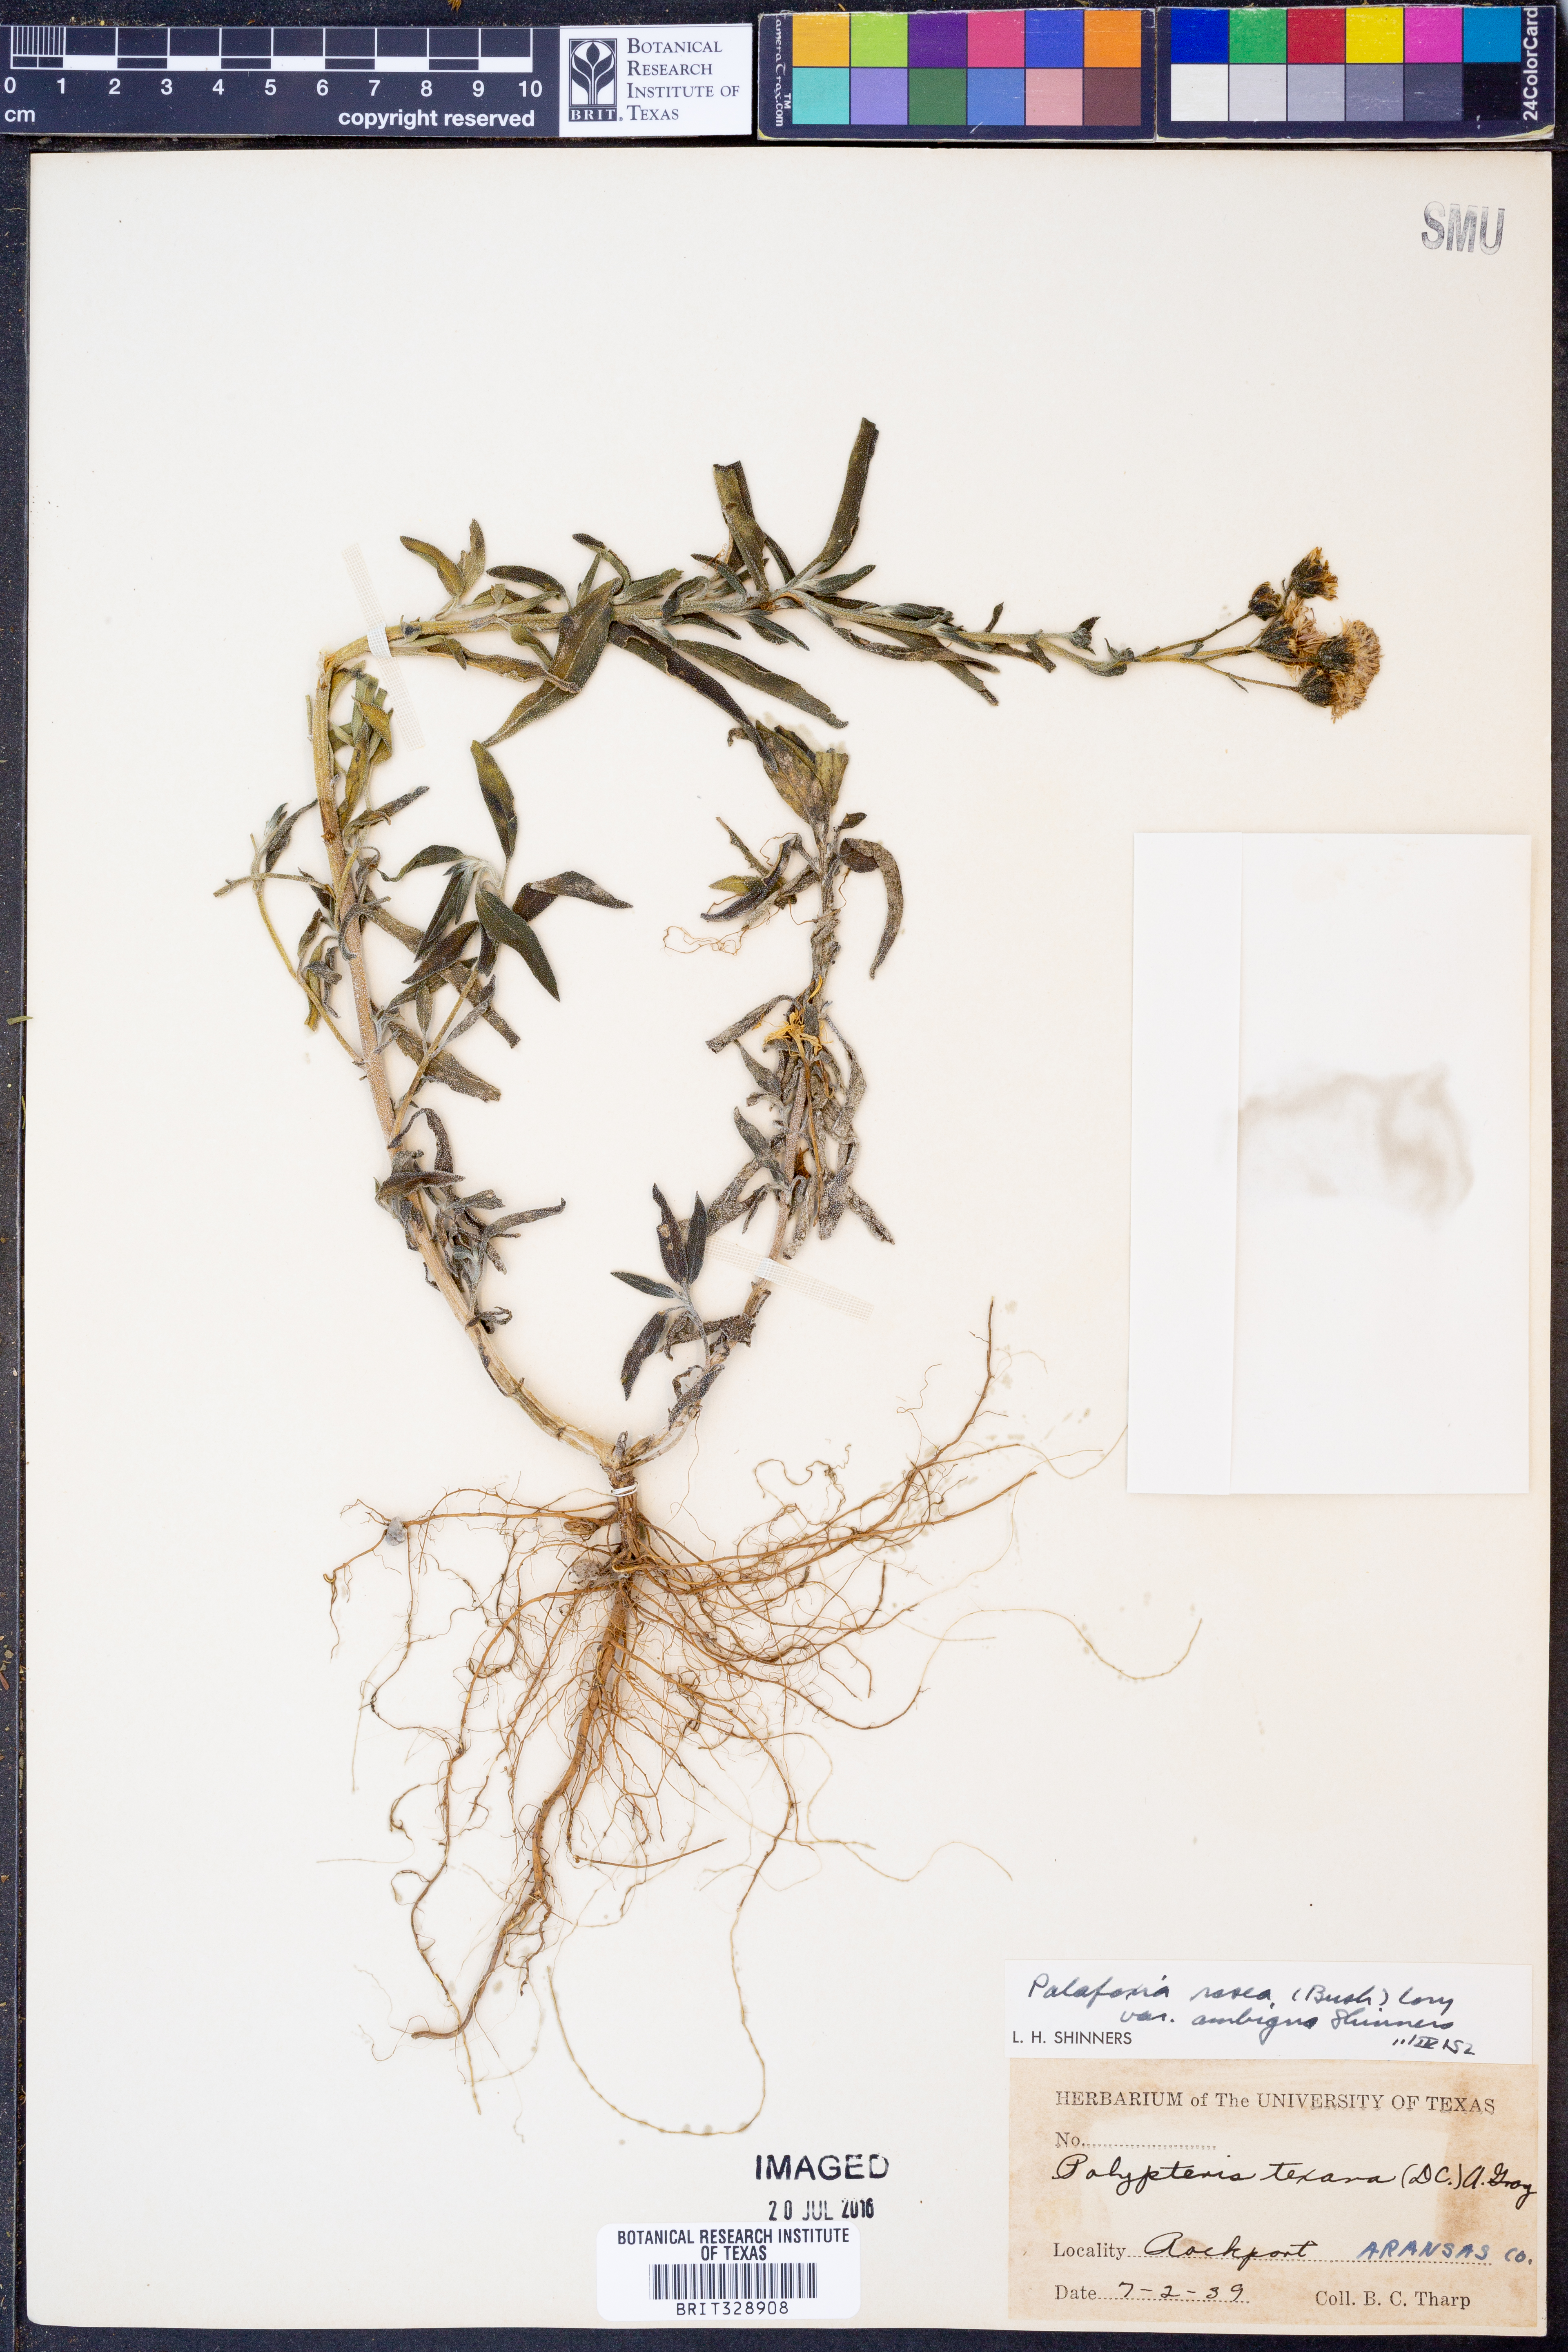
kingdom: Plantae
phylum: Tracheophyta
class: Magnoliopsida
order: Asterales
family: Asteraceae
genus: Palafoxia
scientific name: Palafoxia texana
